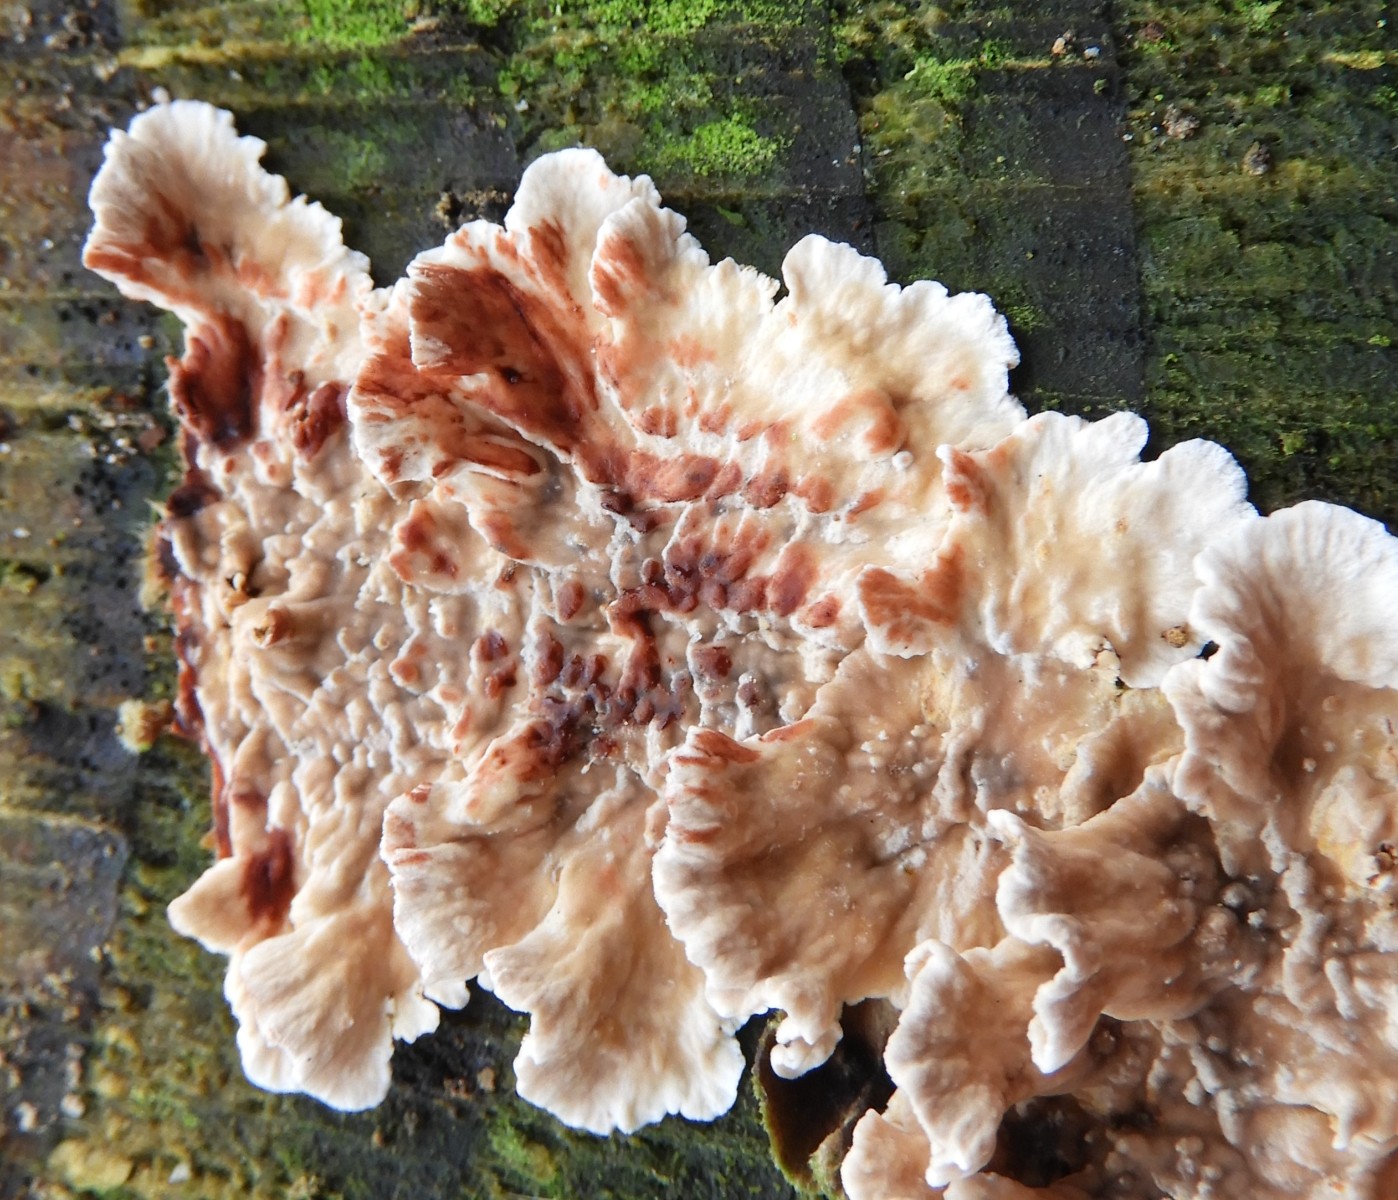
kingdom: Fungi
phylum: Basidiomycota
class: Agaricomycetes
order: Russulales
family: Stereaceae
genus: Stereum
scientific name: Stereum sanguinolentum
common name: blødende lædersvamp
